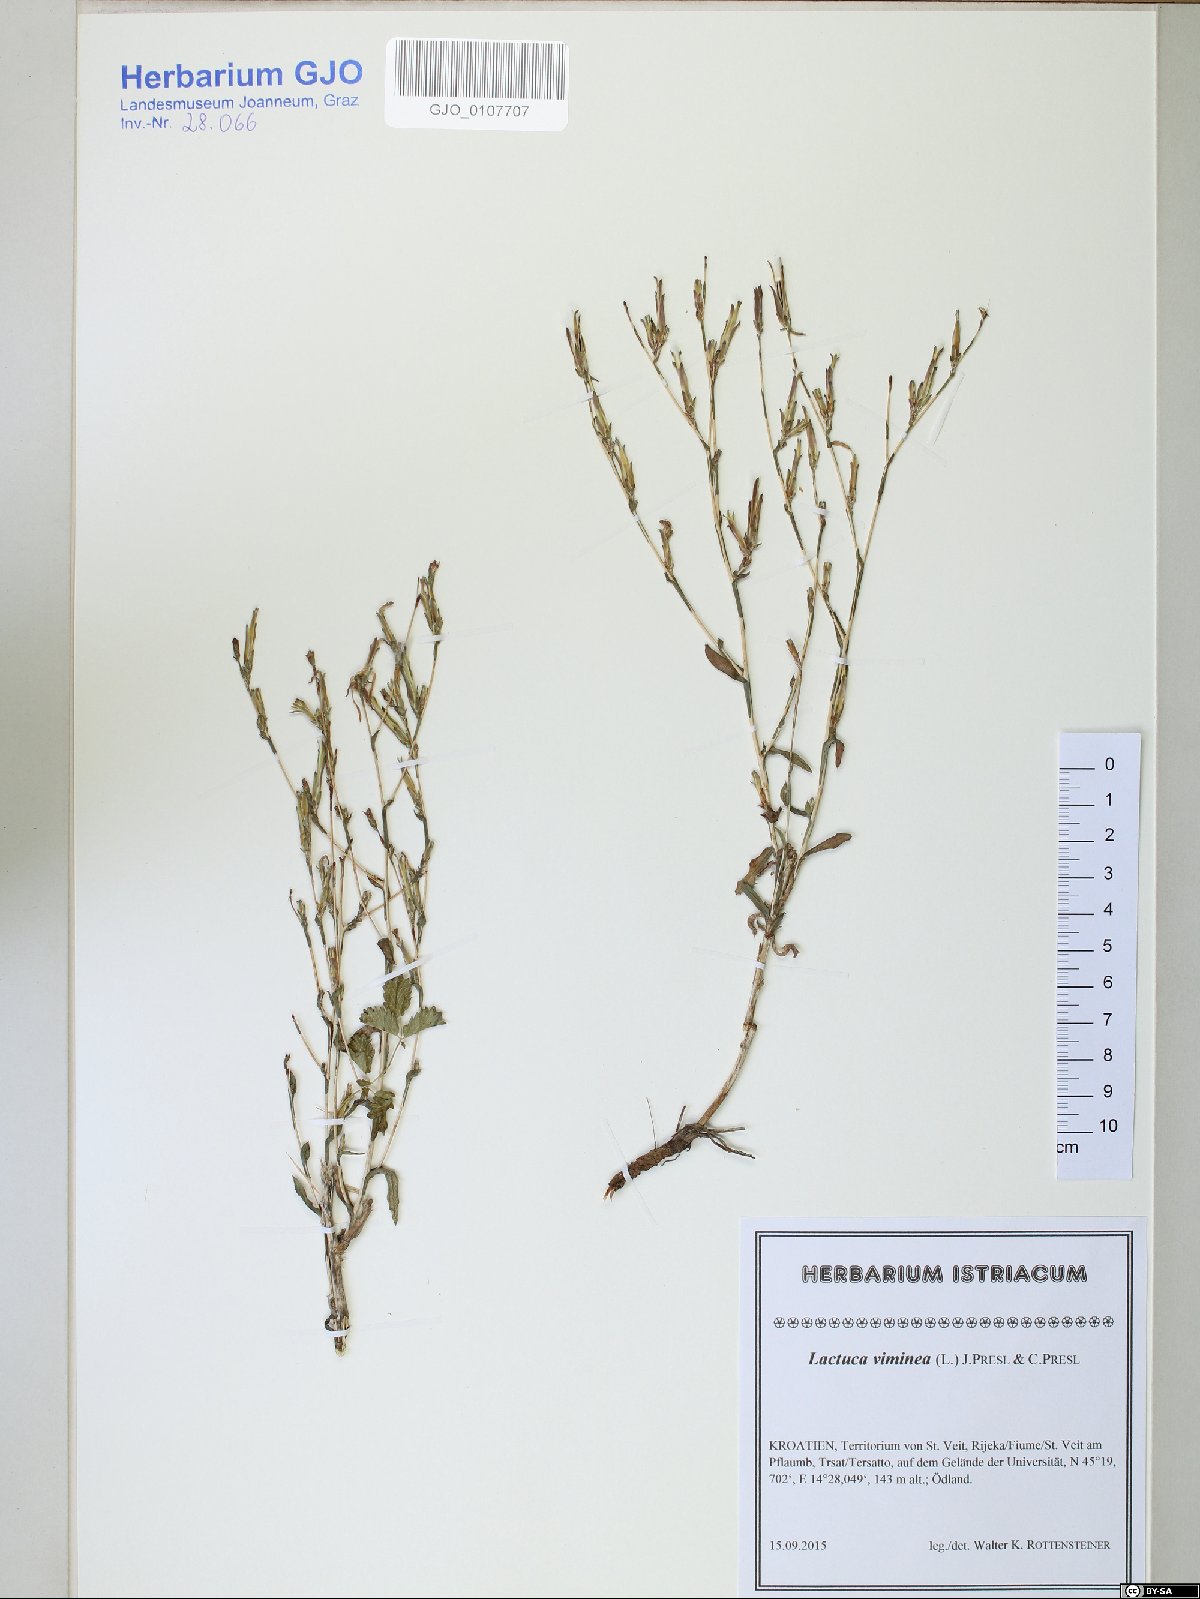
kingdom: Plantae
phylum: Tracheophyta
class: Magnoliopsida
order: Asterales
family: Asteraceae
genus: Lactuca
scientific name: Lactuca viminea
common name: Pliant lettuce
